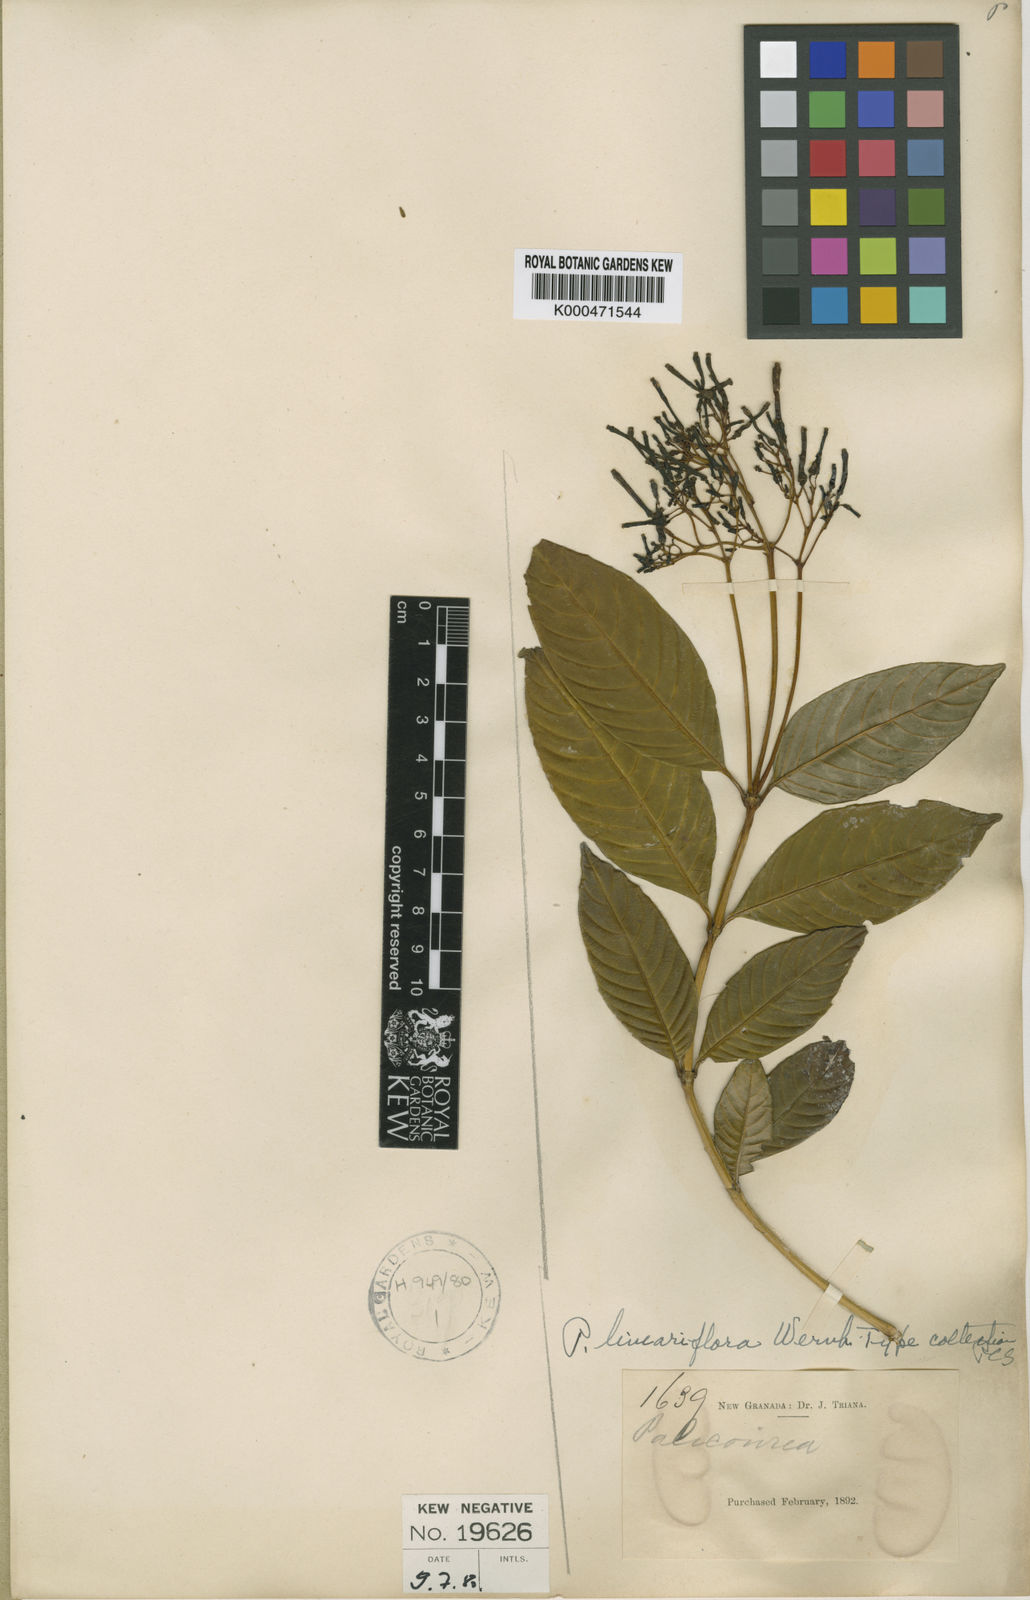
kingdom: Plantae
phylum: Tracheophyta
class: Magnoliopsida
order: Gentianales
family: Rubiaceae
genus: Palicourea
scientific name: Palicourea lineariflora
